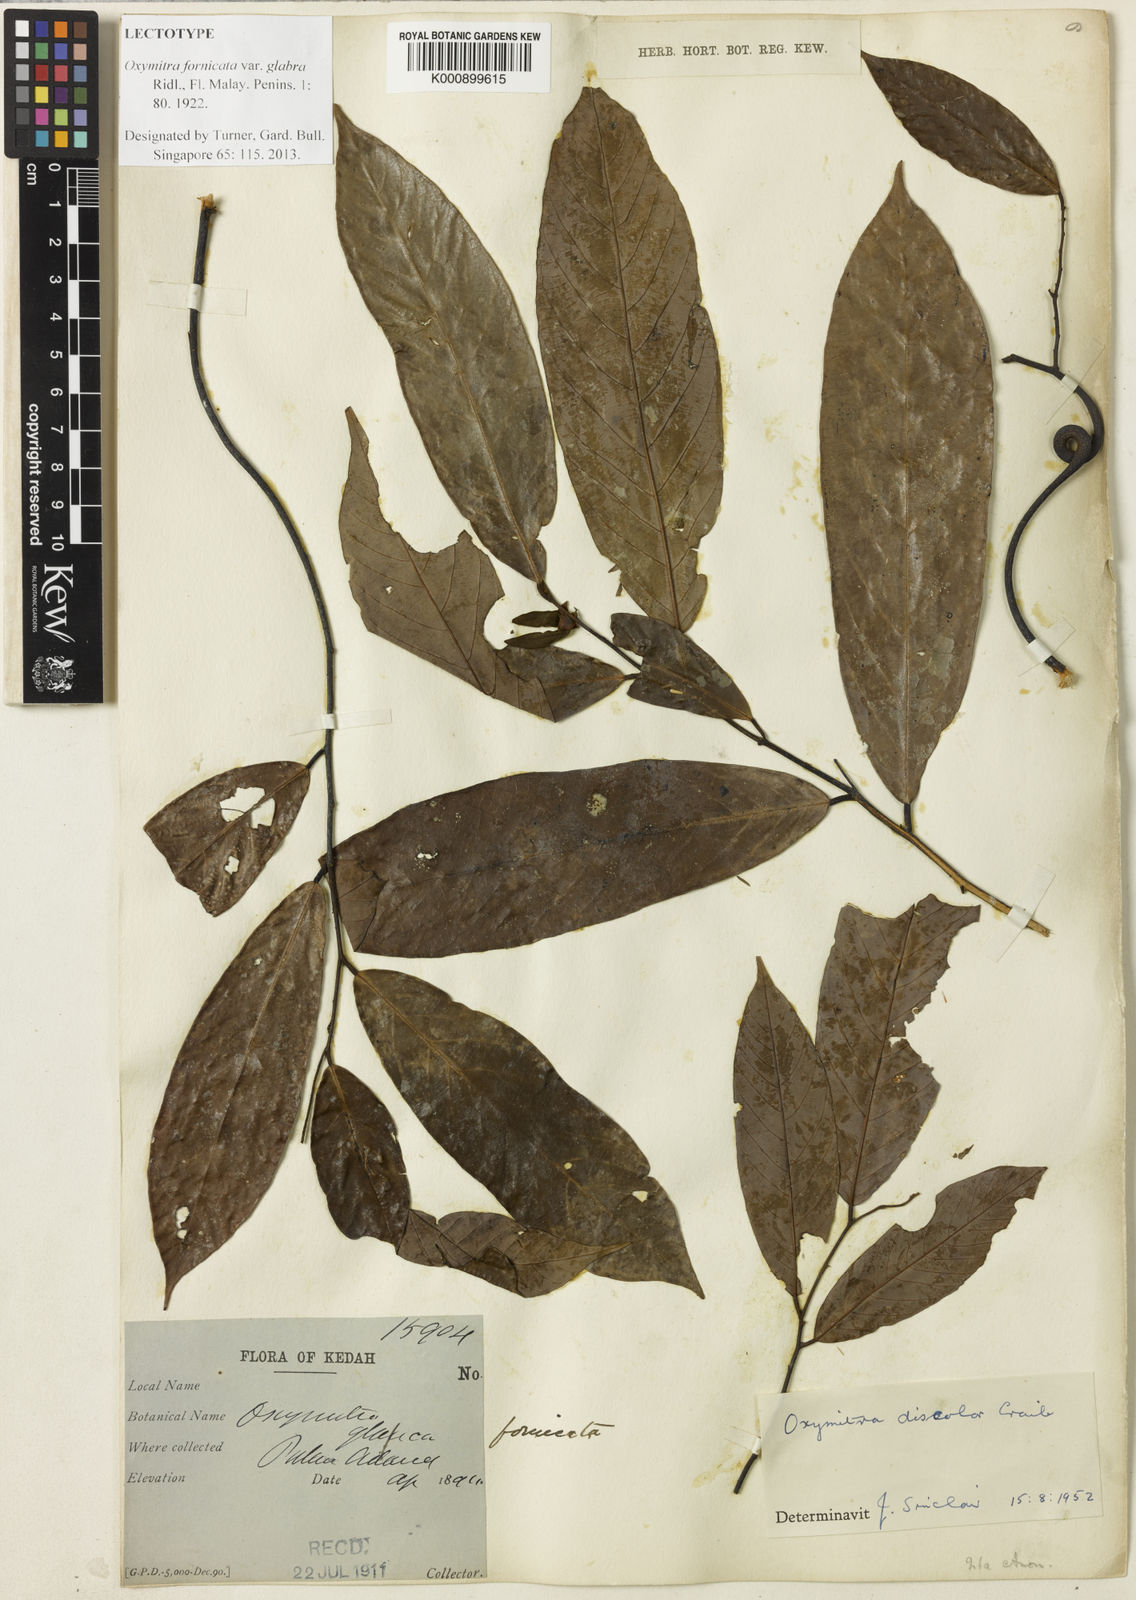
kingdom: Plantae
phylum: Tracheophyta
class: Magnoliopsida
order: Magnoliales
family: Annonaceae
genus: Friesodielsia
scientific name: Friesodielsia discolor
